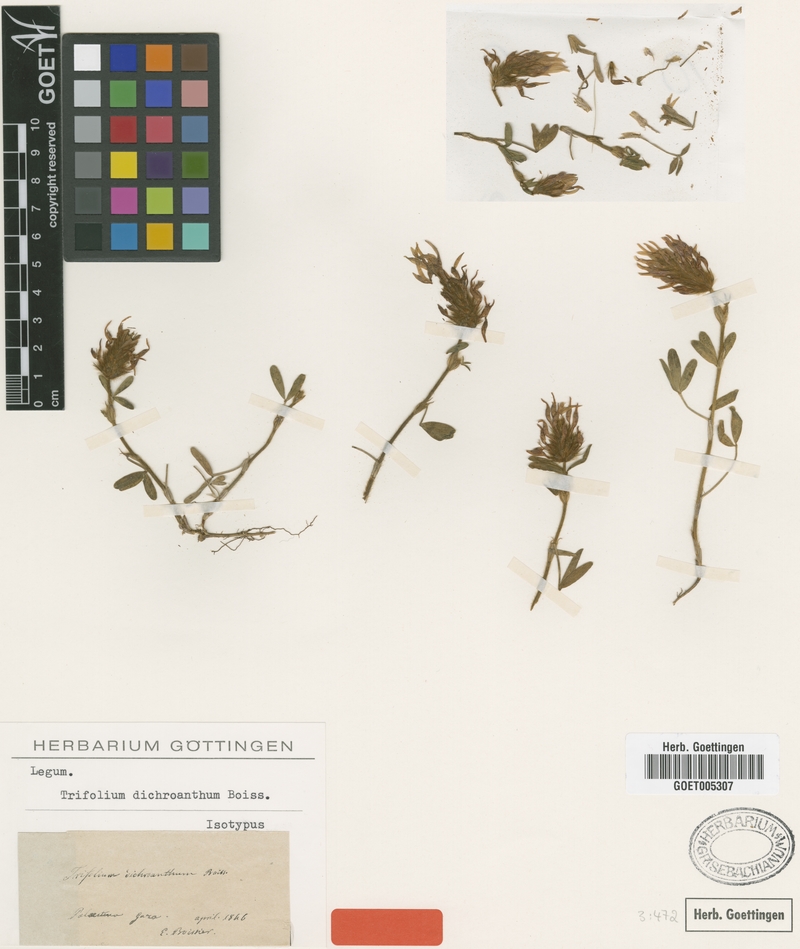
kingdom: Plantae
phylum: Tracheophyta
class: Magnoliopsida
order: Fabales
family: Fabaceae
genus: Trifolium
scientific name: Trifolium dichroanthum
